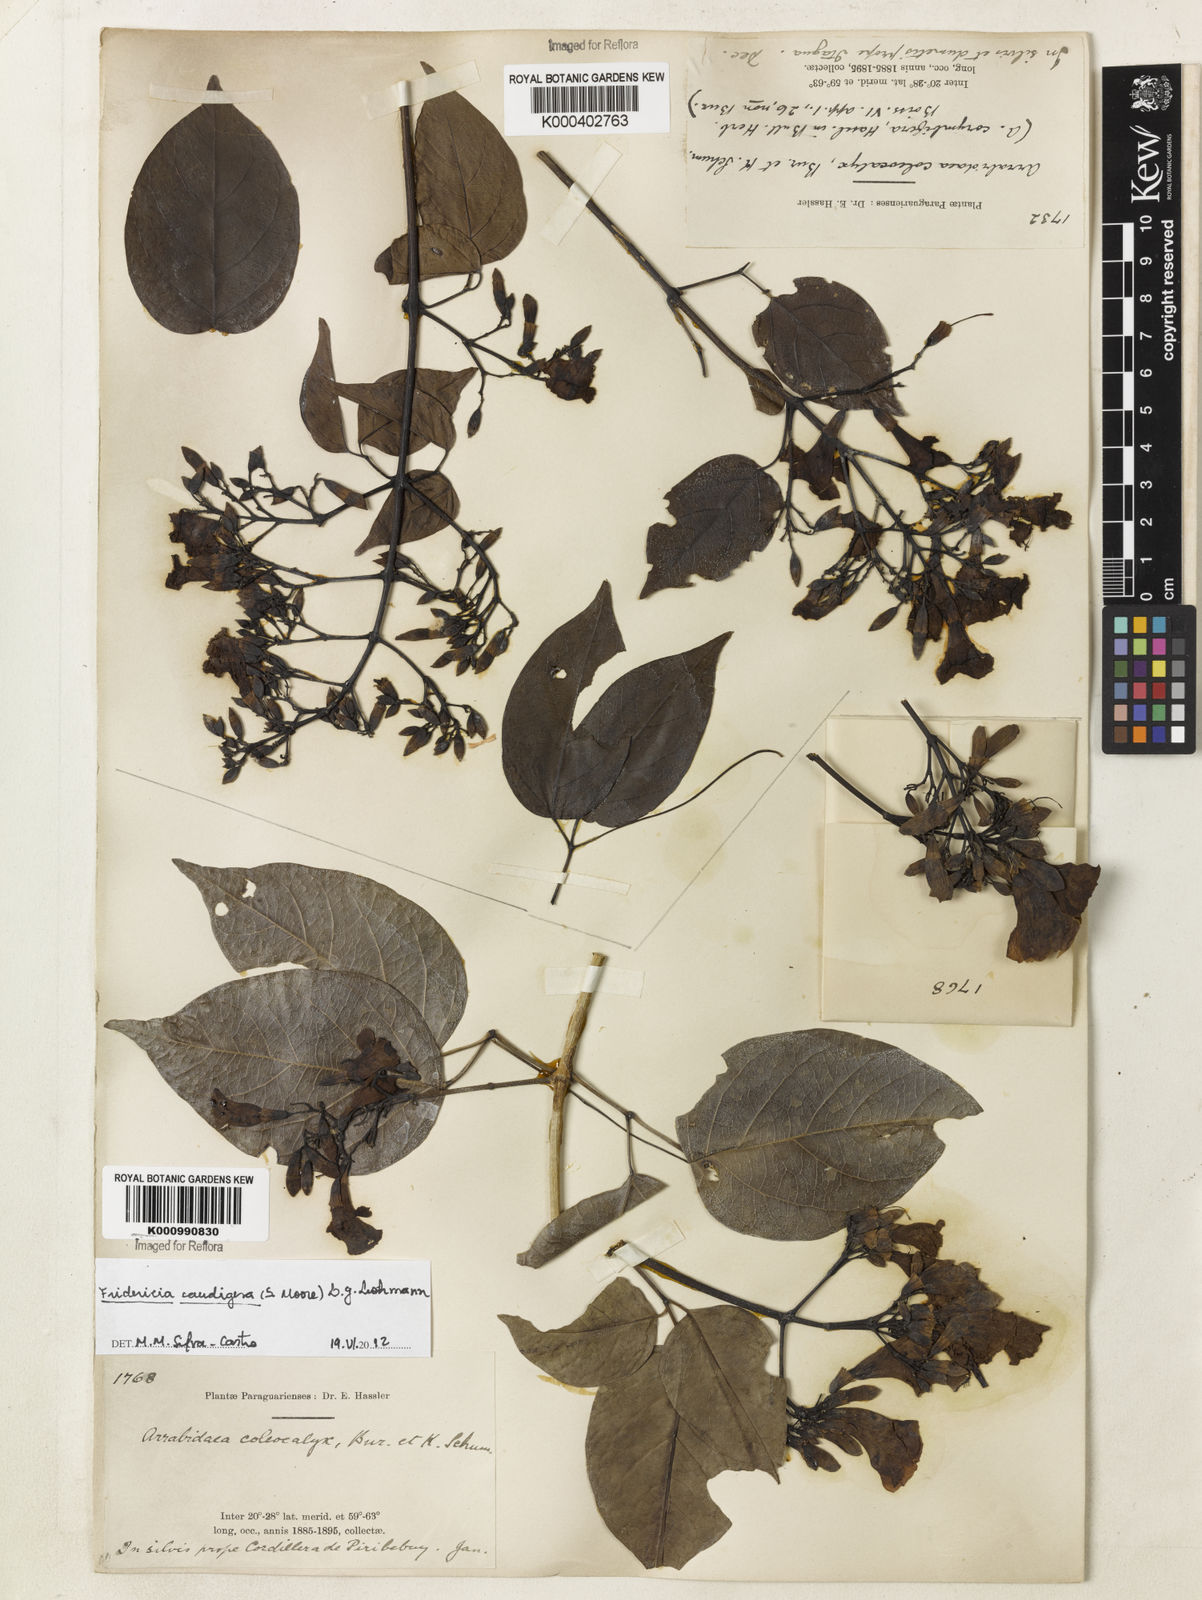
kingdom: Plantae
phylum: Tracheophyta
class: Magnoliopsida
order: Lamiales
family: Bignoniaceae
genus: Fridericia
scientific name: Fridericia caudigera
